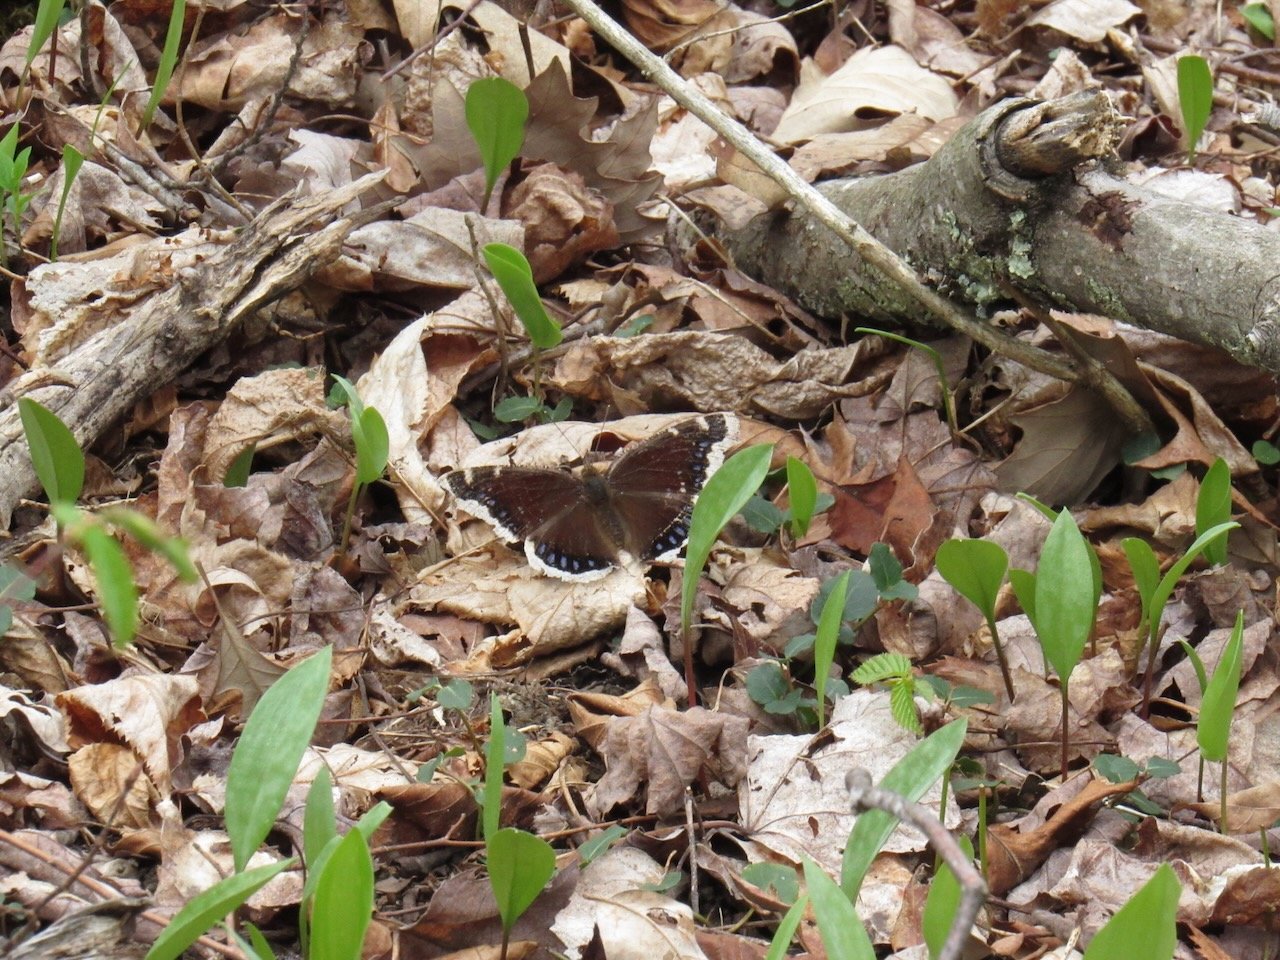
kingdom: Animalia
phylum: Arthropoda
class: Insecta
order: Lepidoptera
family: Nymphalidae
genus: Nymphalis
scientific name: Nymphalis antiopa
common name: Mourning Cloak
